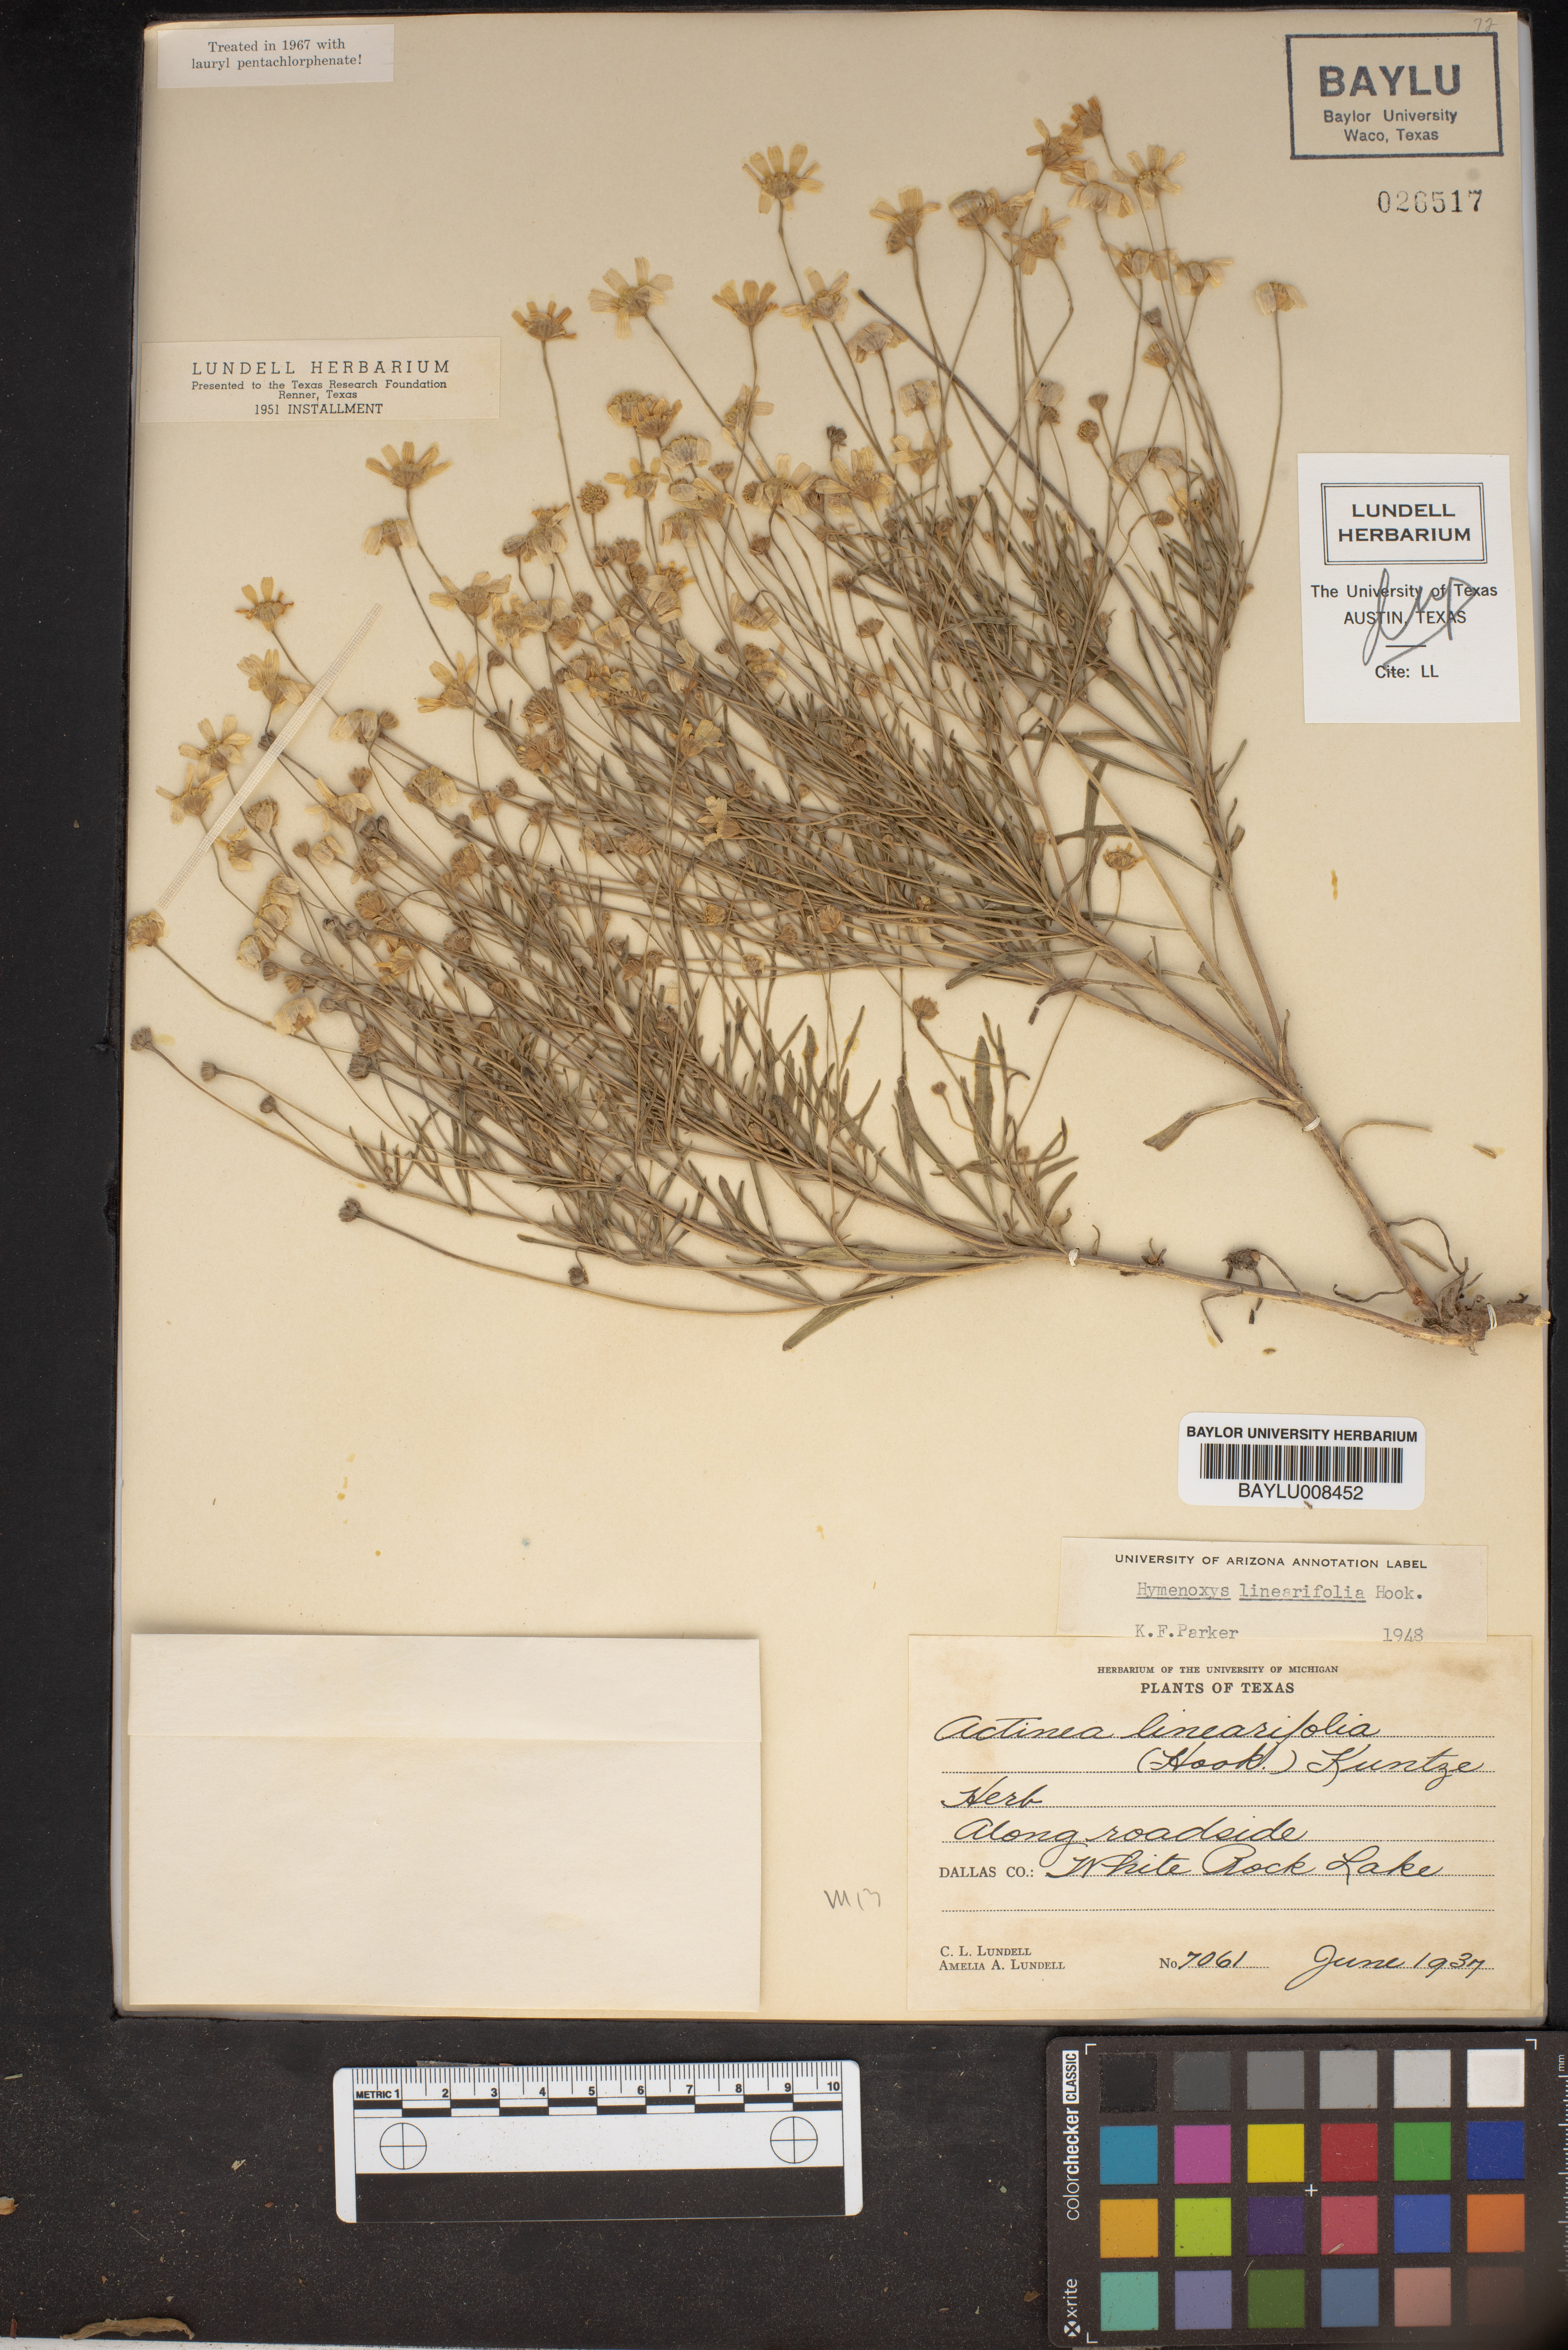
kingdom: Plantae
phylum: Tracheophyta
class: Magnoliopsida
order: Asterales
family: Asteraceae
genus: Tetraneuris
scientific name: Tetraneuris linearifolia
